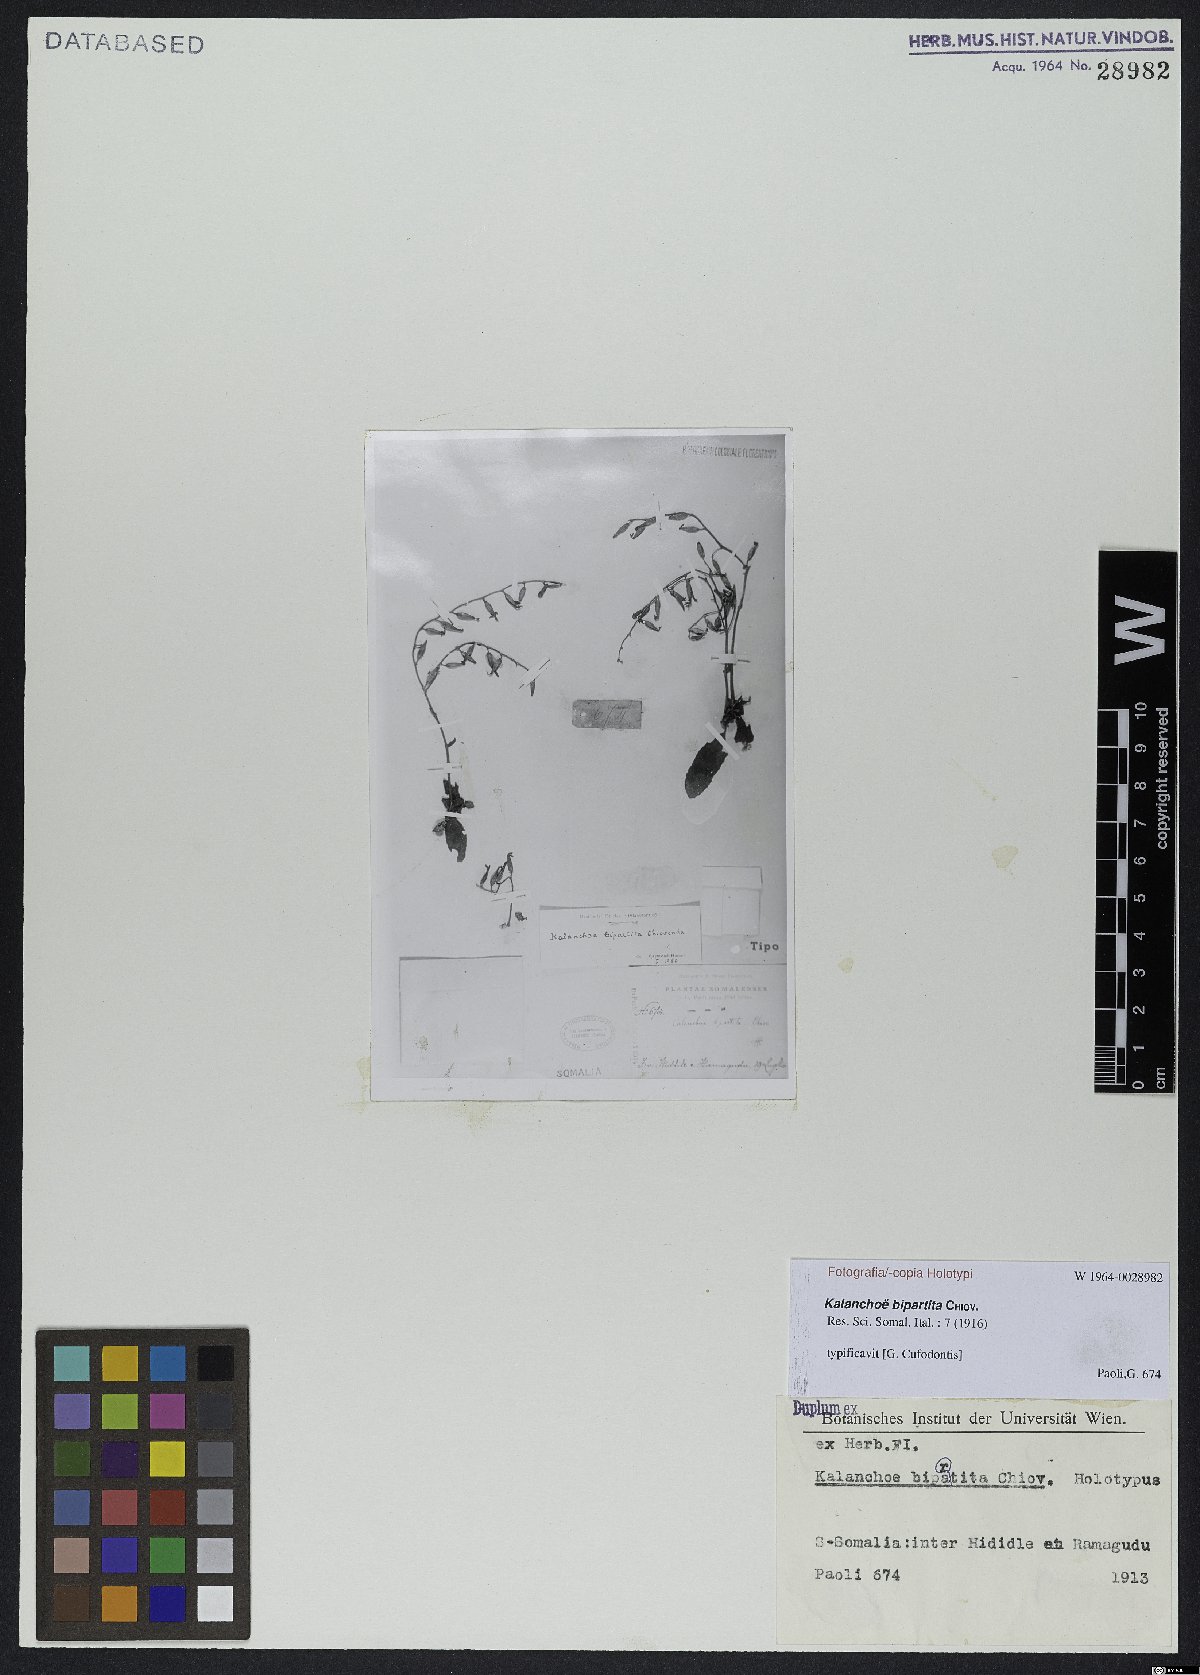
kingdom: Plantae
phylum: Tracheophyta
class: Magnoliopsida
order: Saxifragales
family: Crassulaceae
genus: Kalanchoe
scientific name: Kalanchoe bipartita
